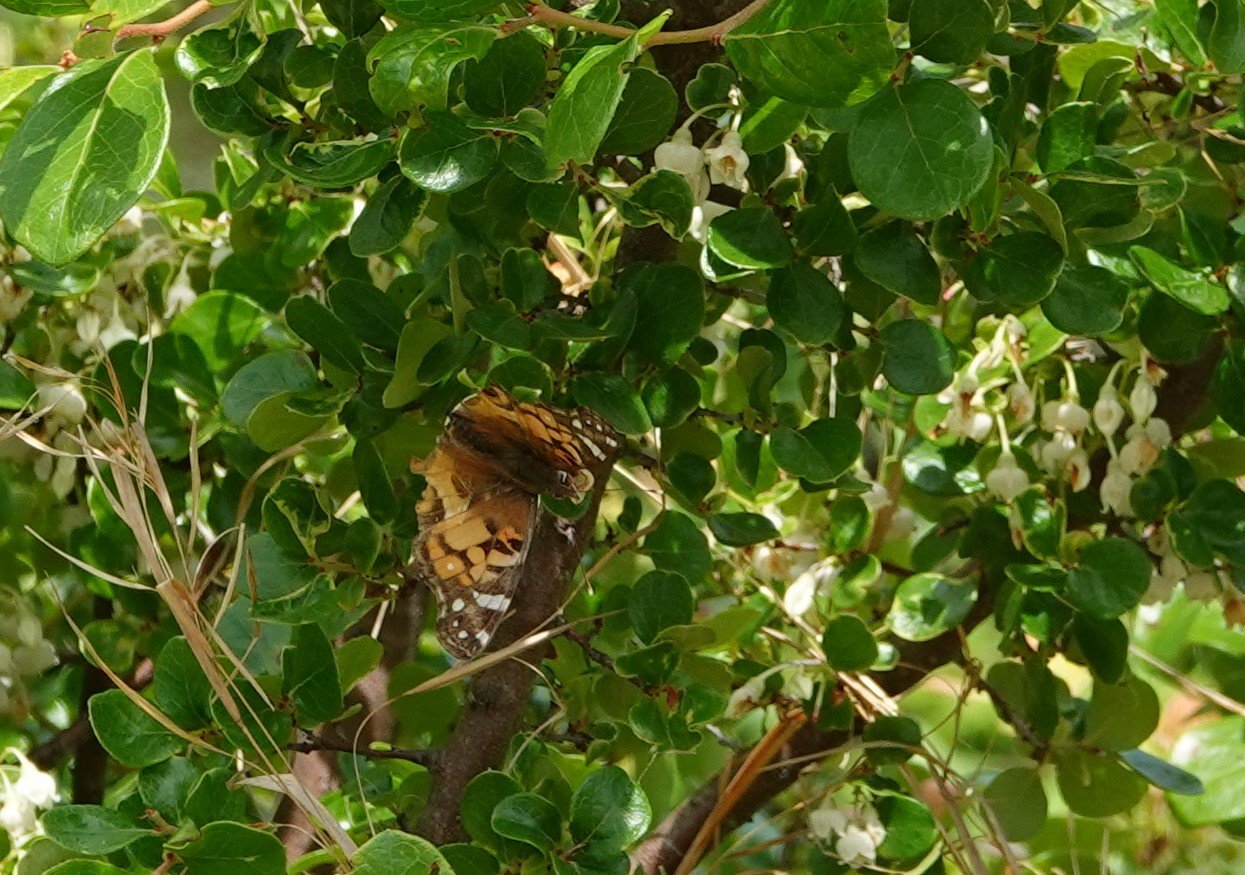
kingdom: Animalia
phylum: Arthropoda
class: Insecta
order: Lepidoptera
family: Nymphalidae
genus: Vanessa
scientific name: Vanessa virginiensis
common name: American Lady
